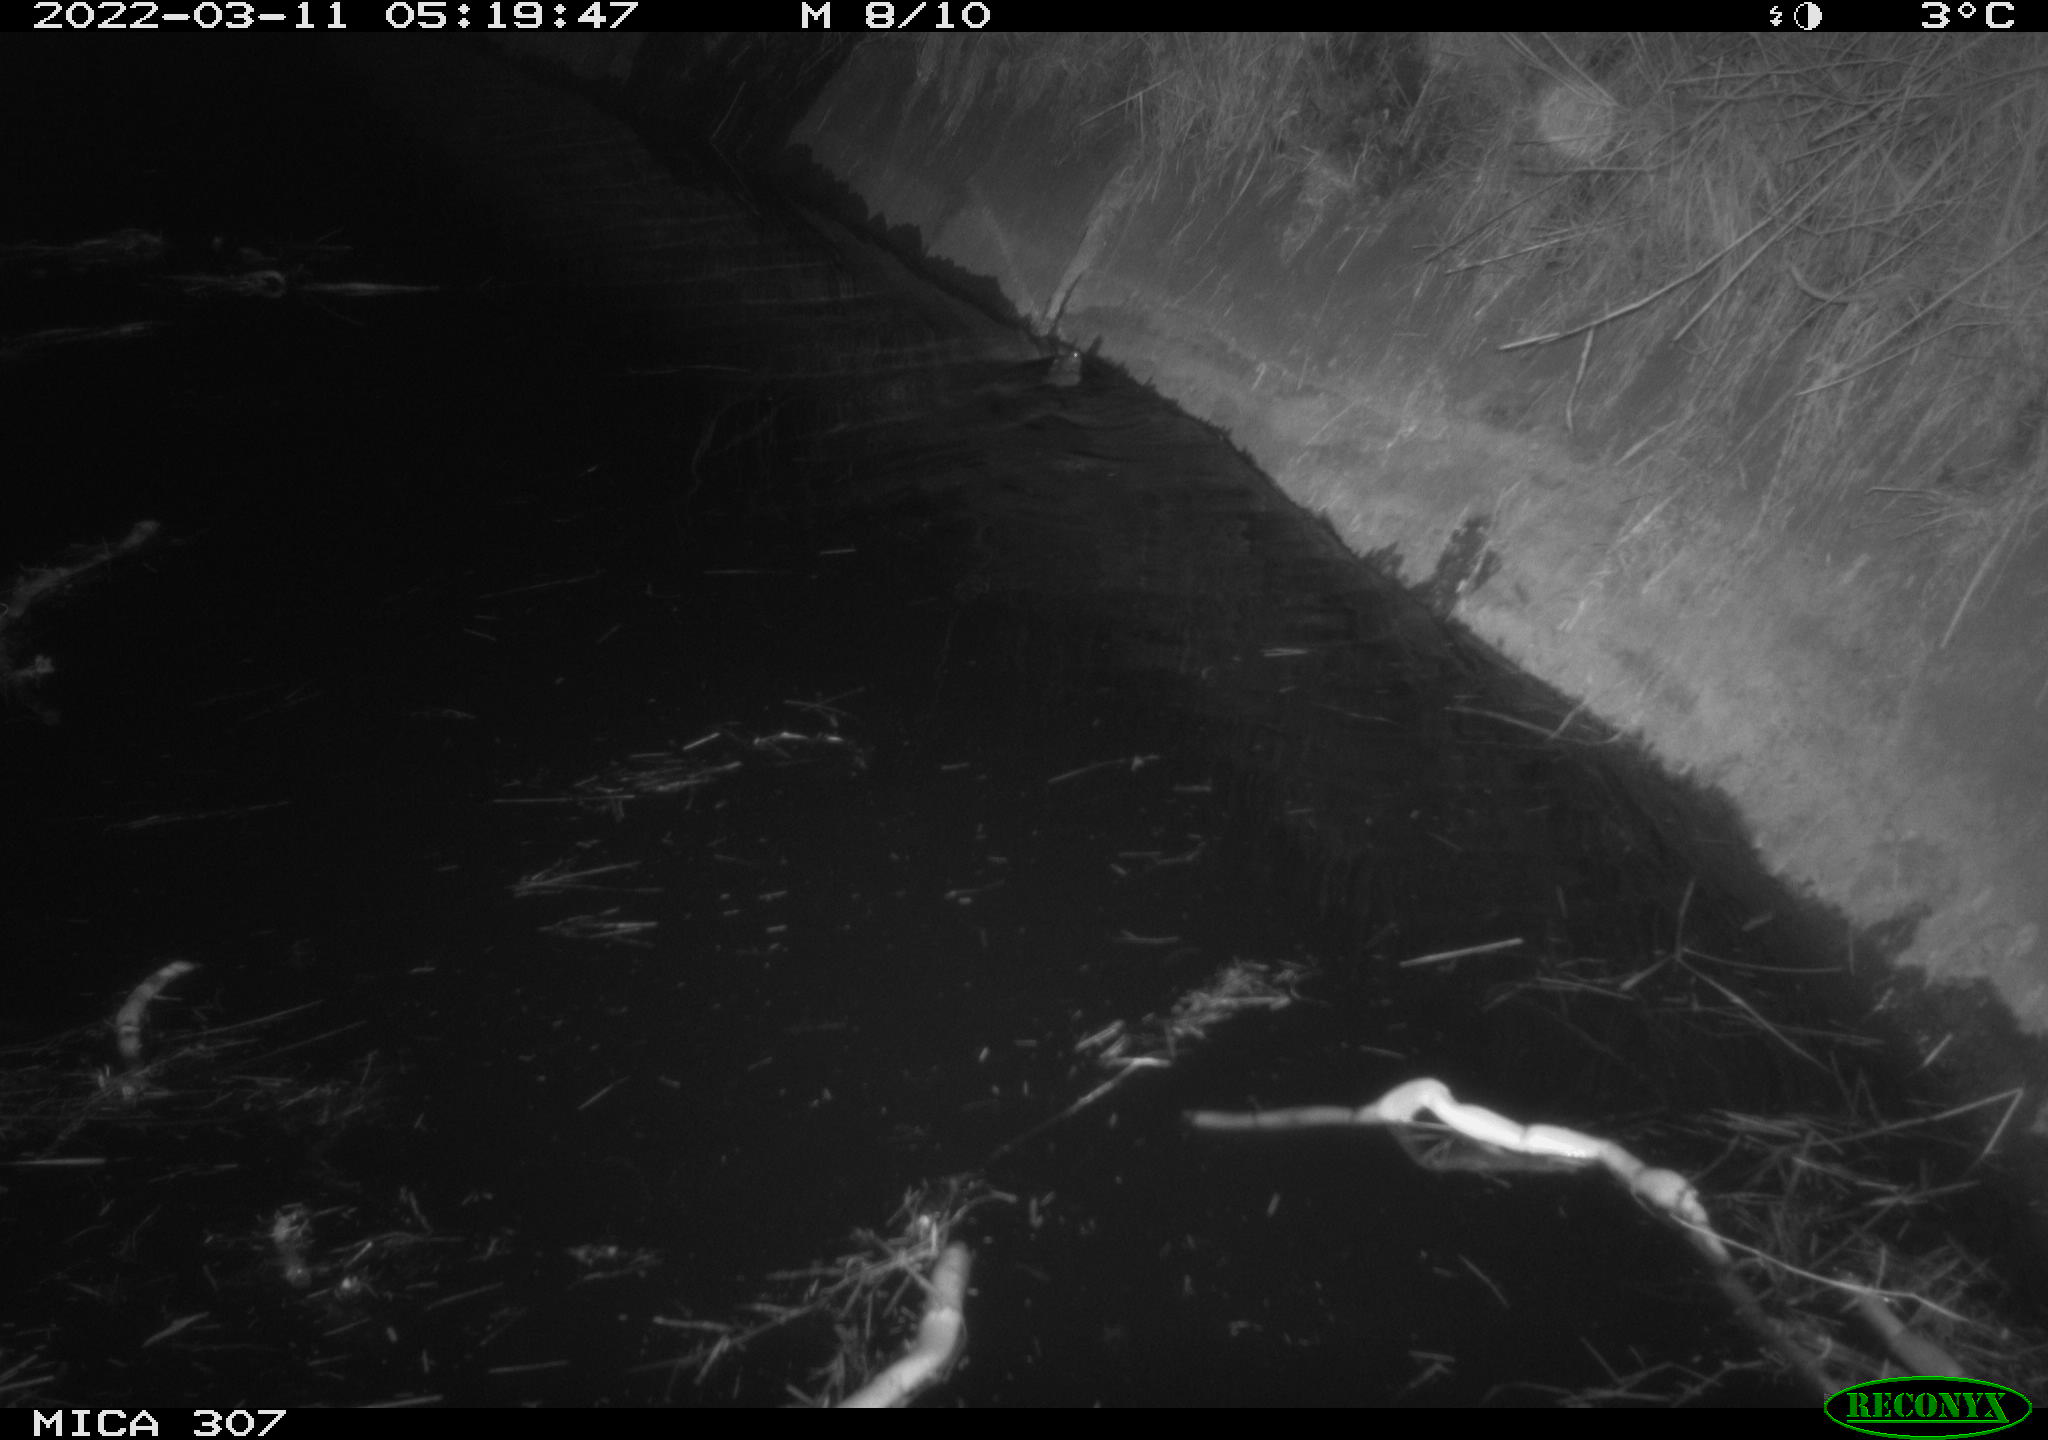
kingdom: Animalia
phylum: Chordata
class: Mammalia
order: Rodentia
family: Muridae
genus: Rattus
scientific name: Rattus norvegicus
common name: Brown rat
